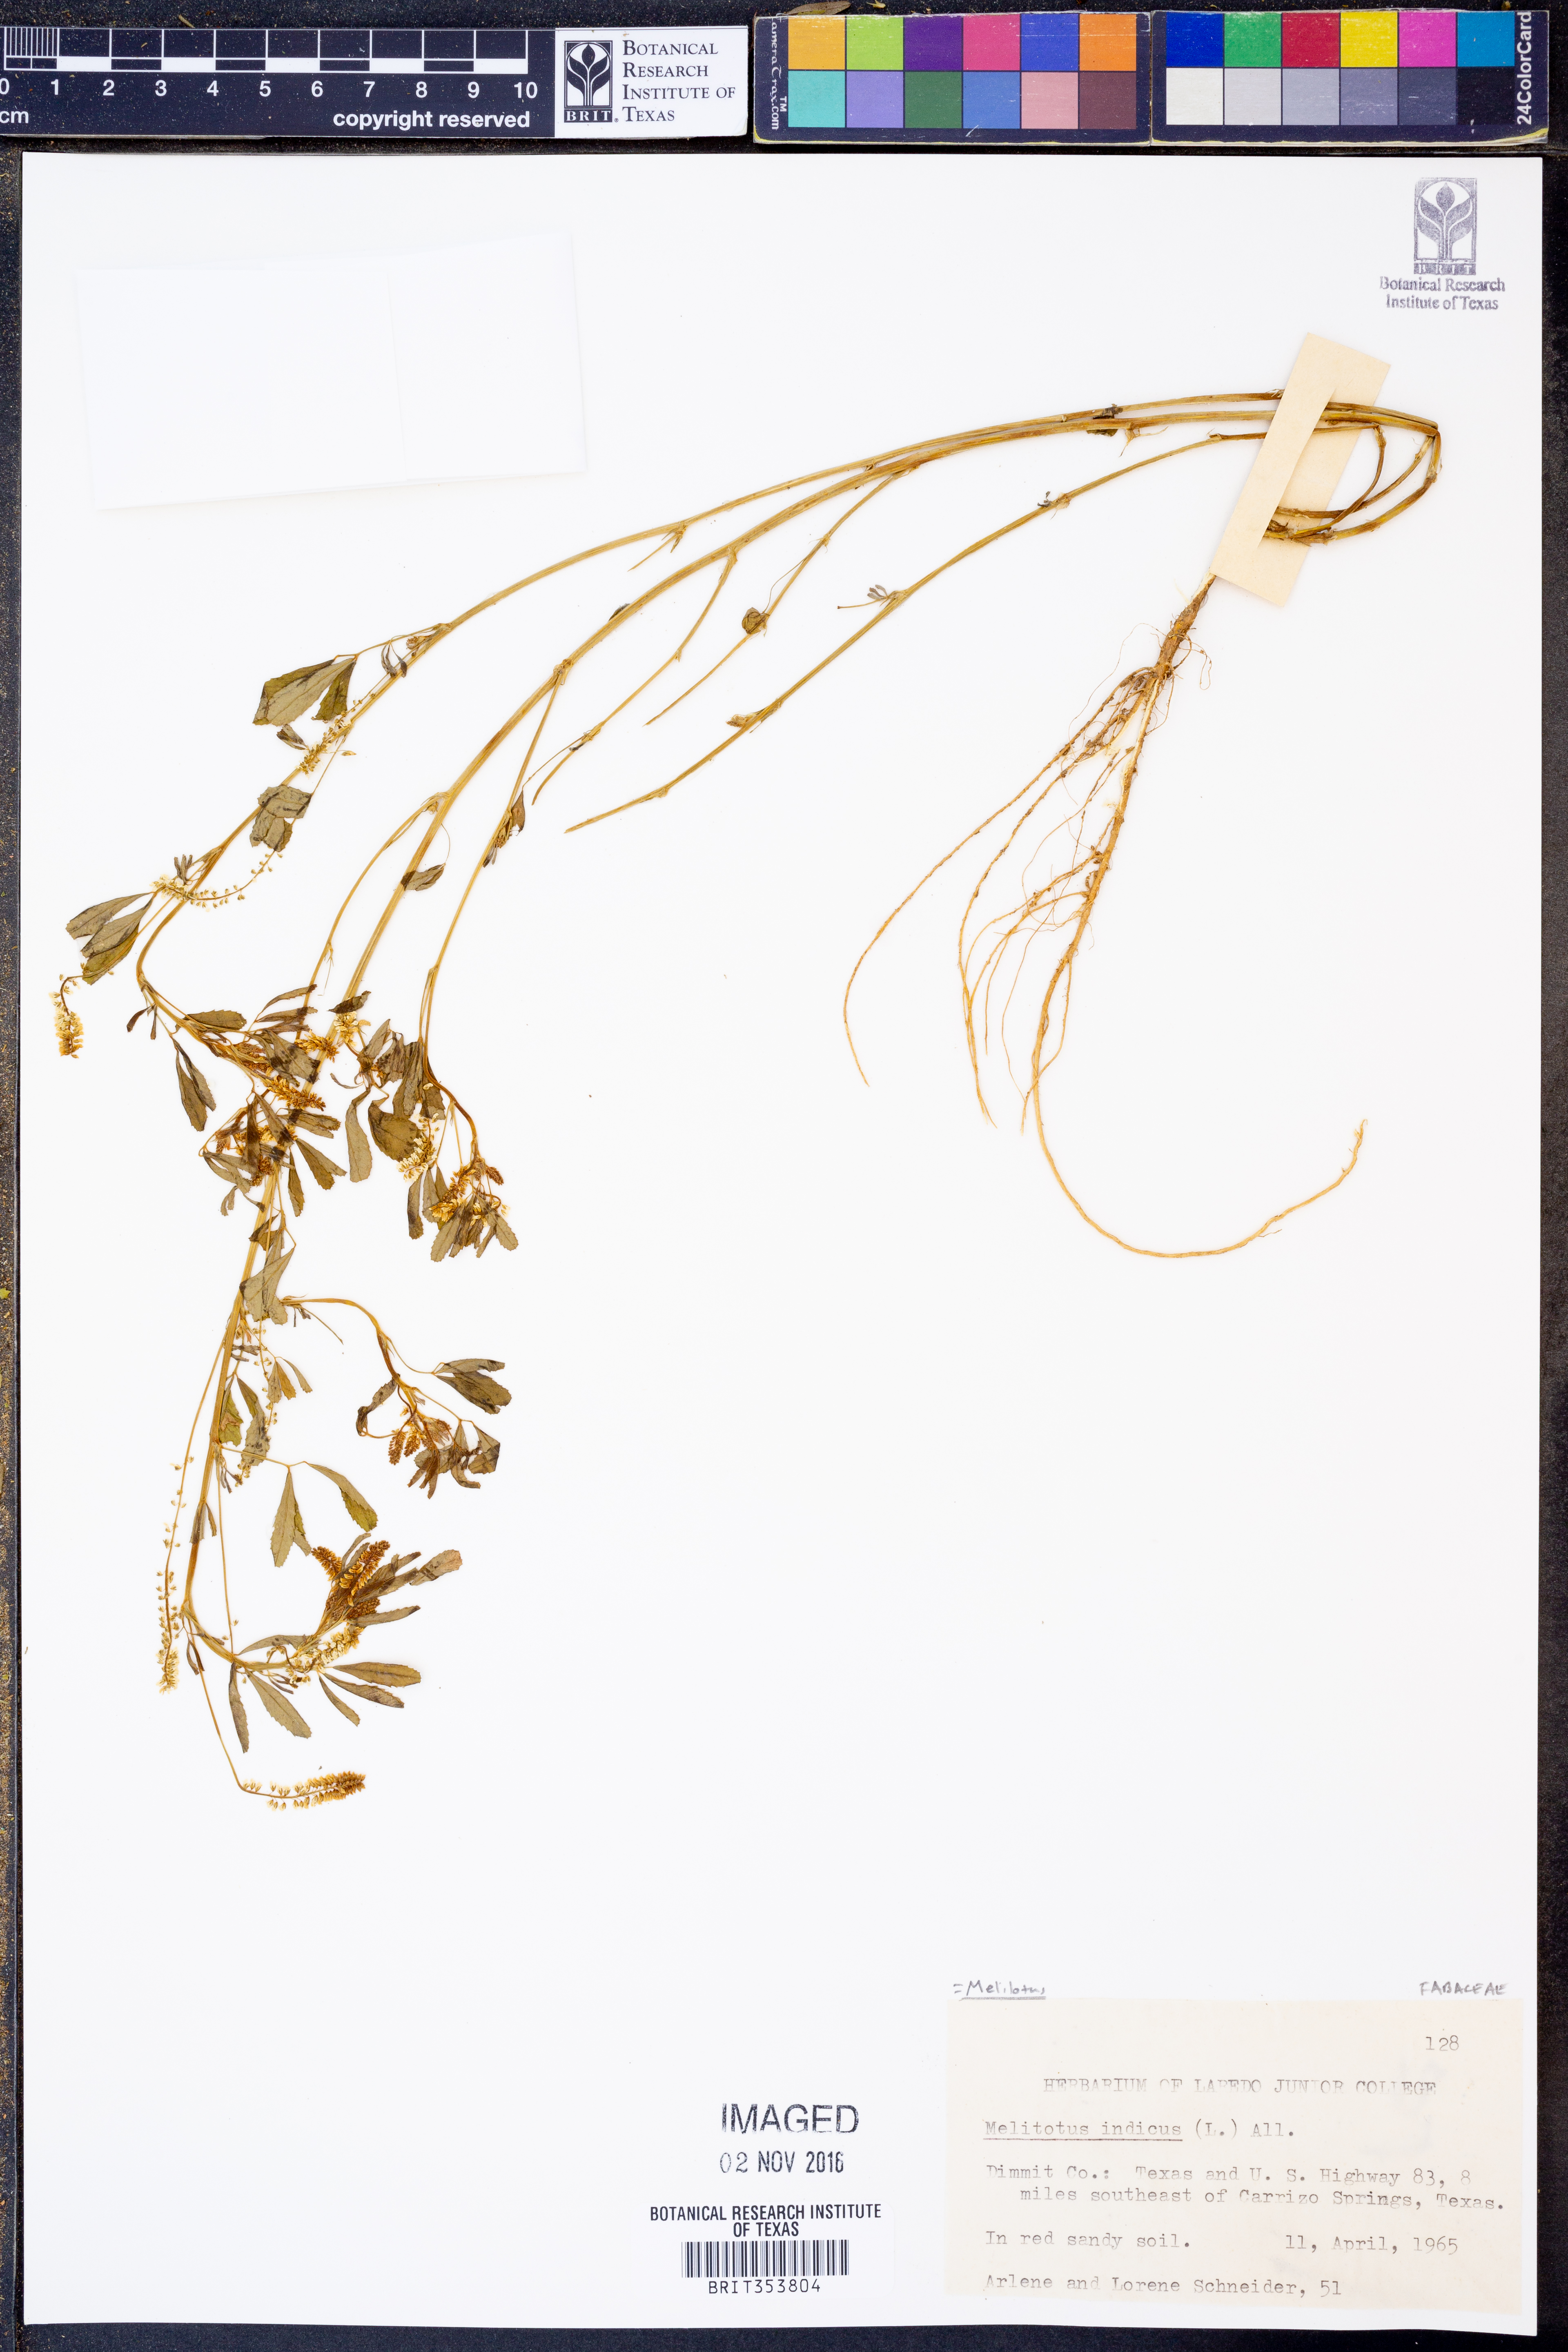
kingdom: Plantae
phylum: Tracheophyta
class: Magnoliopsida
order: Fabales
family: Fabaceae
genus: Melilotus
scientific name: Melilotus indicus
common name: Small melilot
